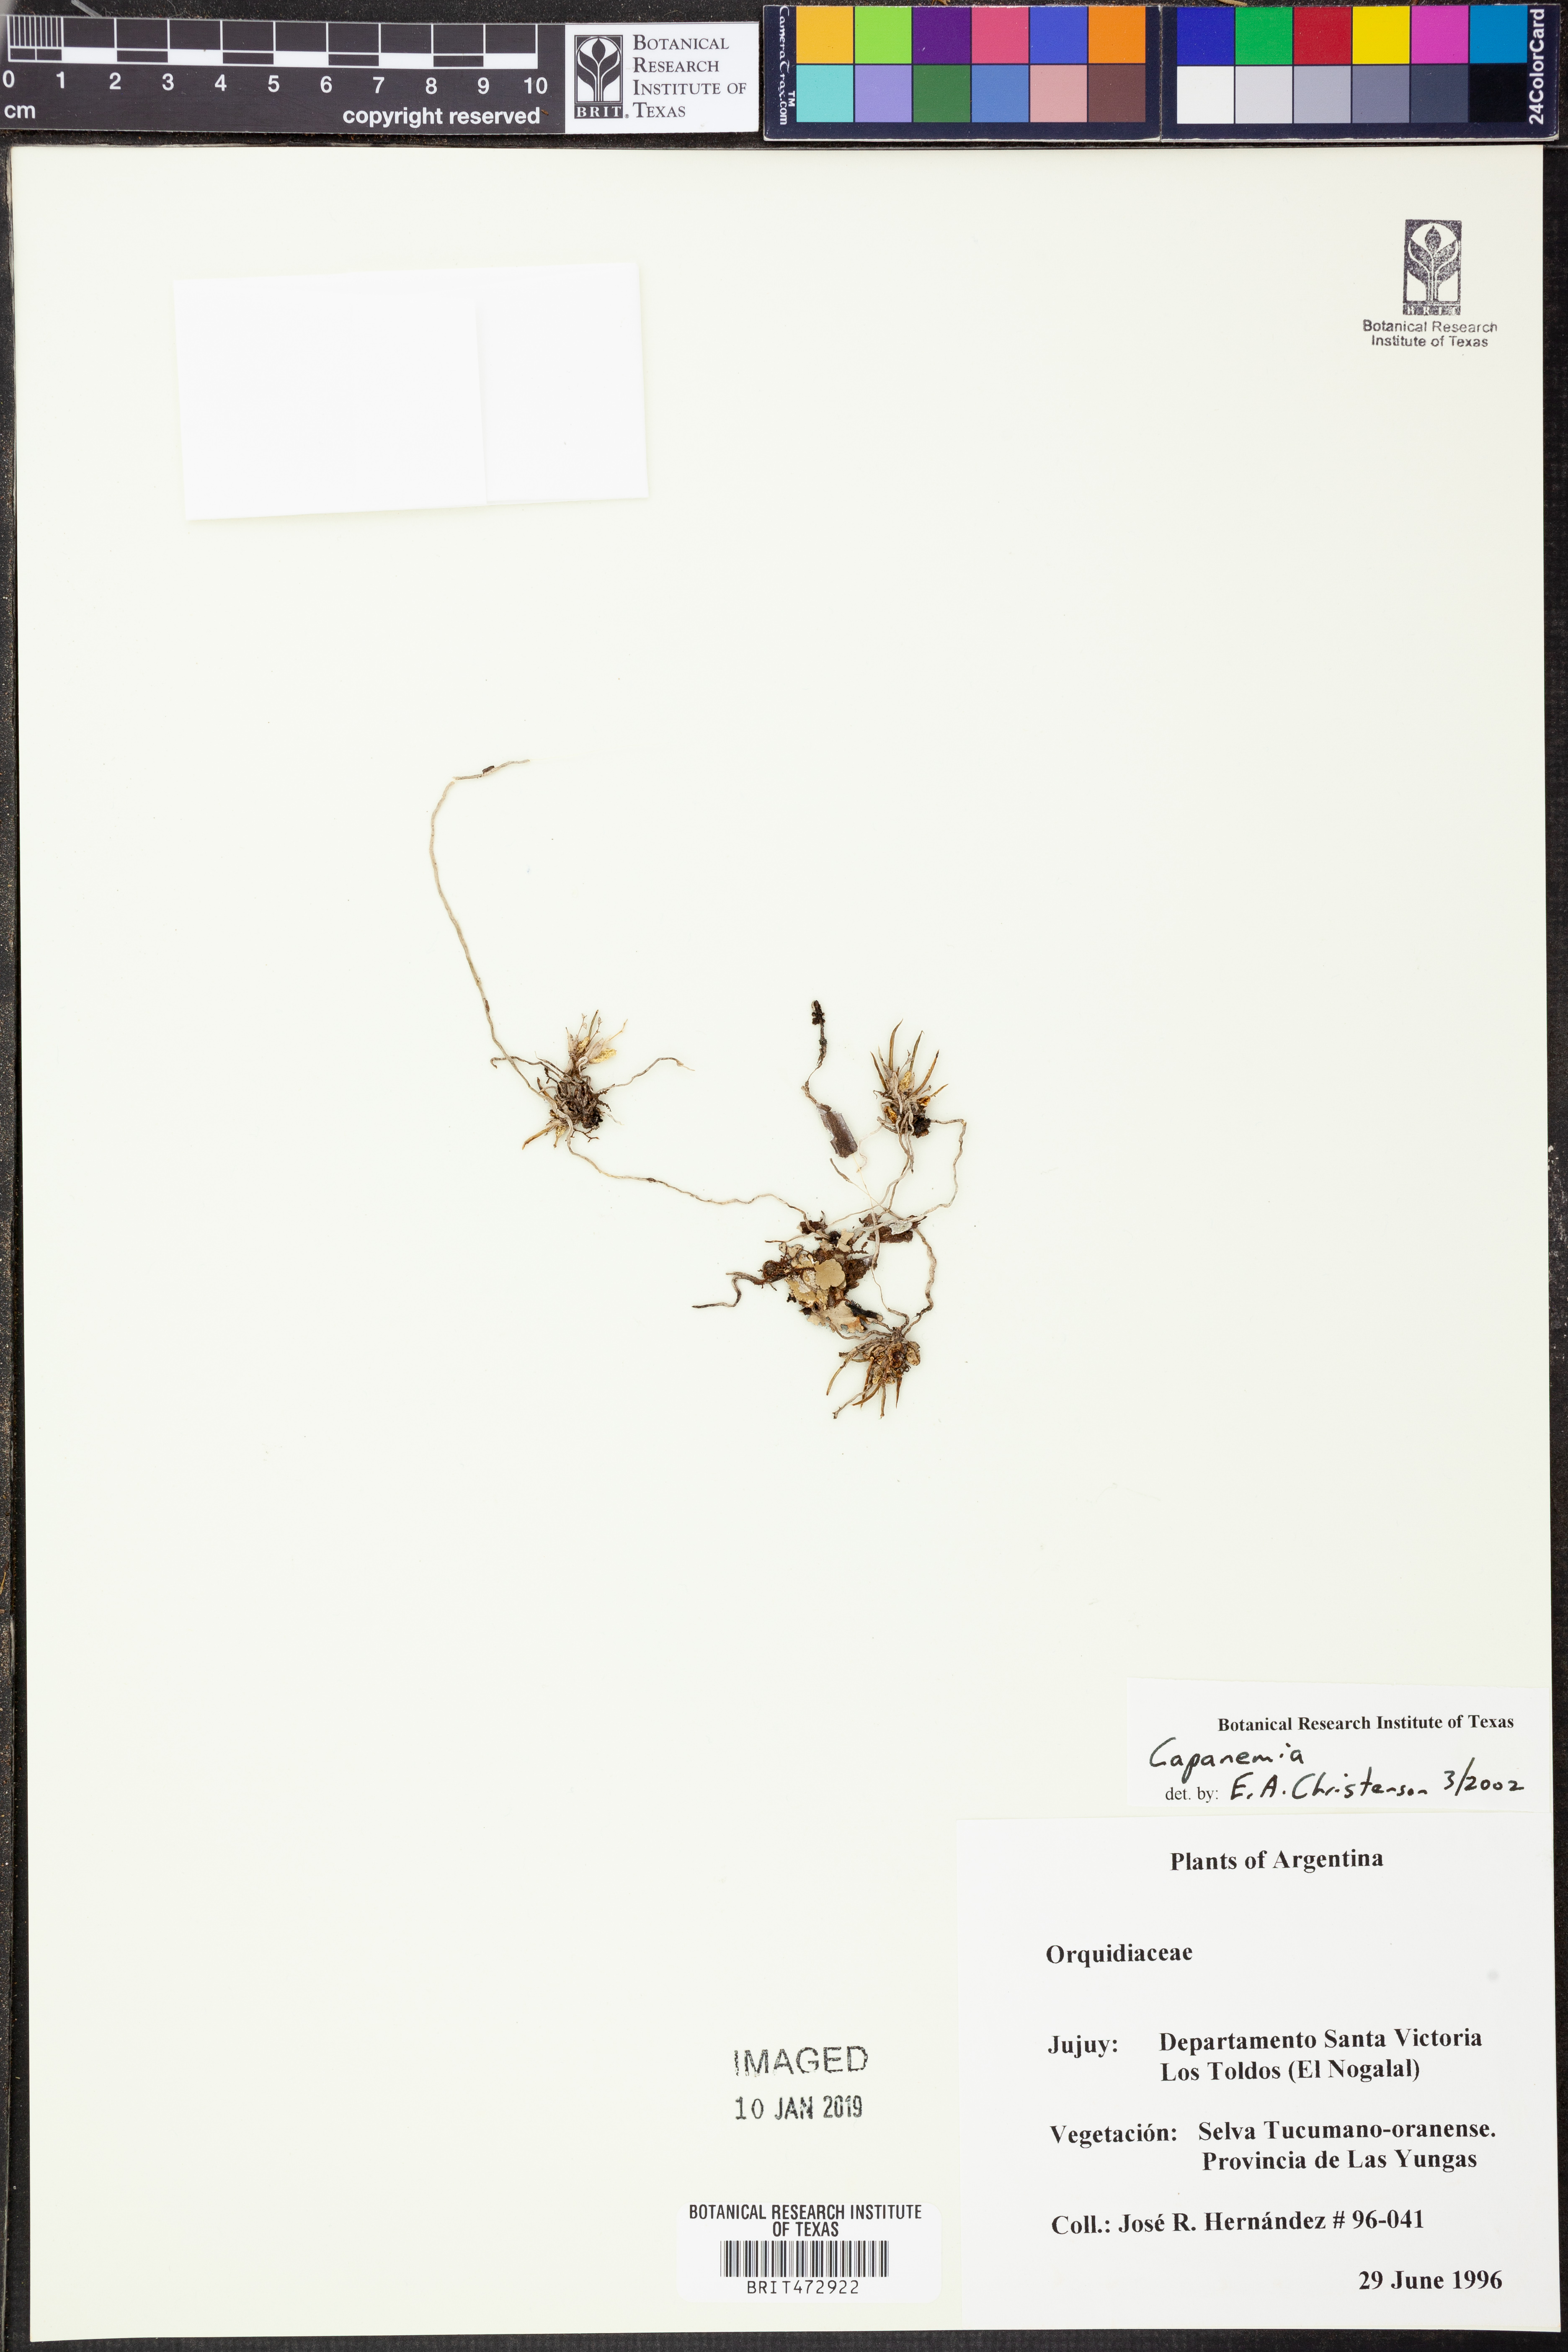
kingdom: Plantae
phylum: Tracheophyta
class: Liliopsida
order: Asparagales
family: Orchidaceae
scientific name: Orchidaceae
